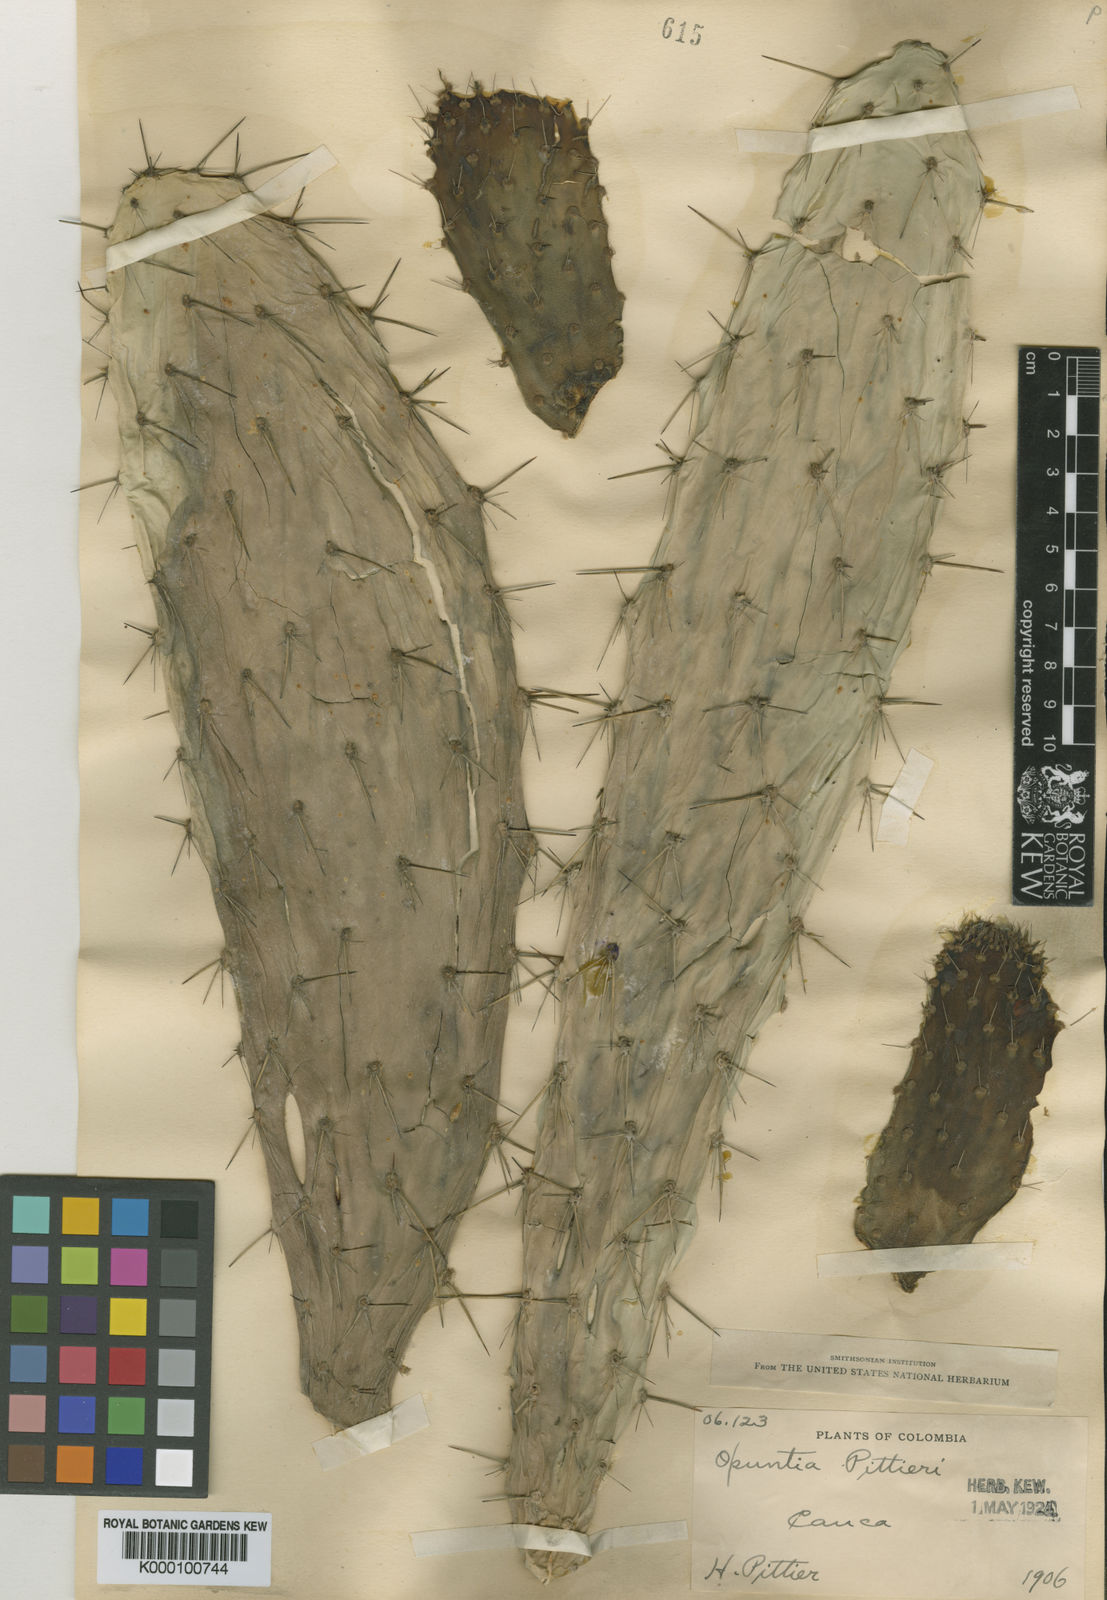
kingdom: Plantae
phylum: Tracheophyta
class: Magnoliopsida
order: Caryophyllales
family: Cactaceae
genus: Opuntia
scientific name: Opuntia pittieri
